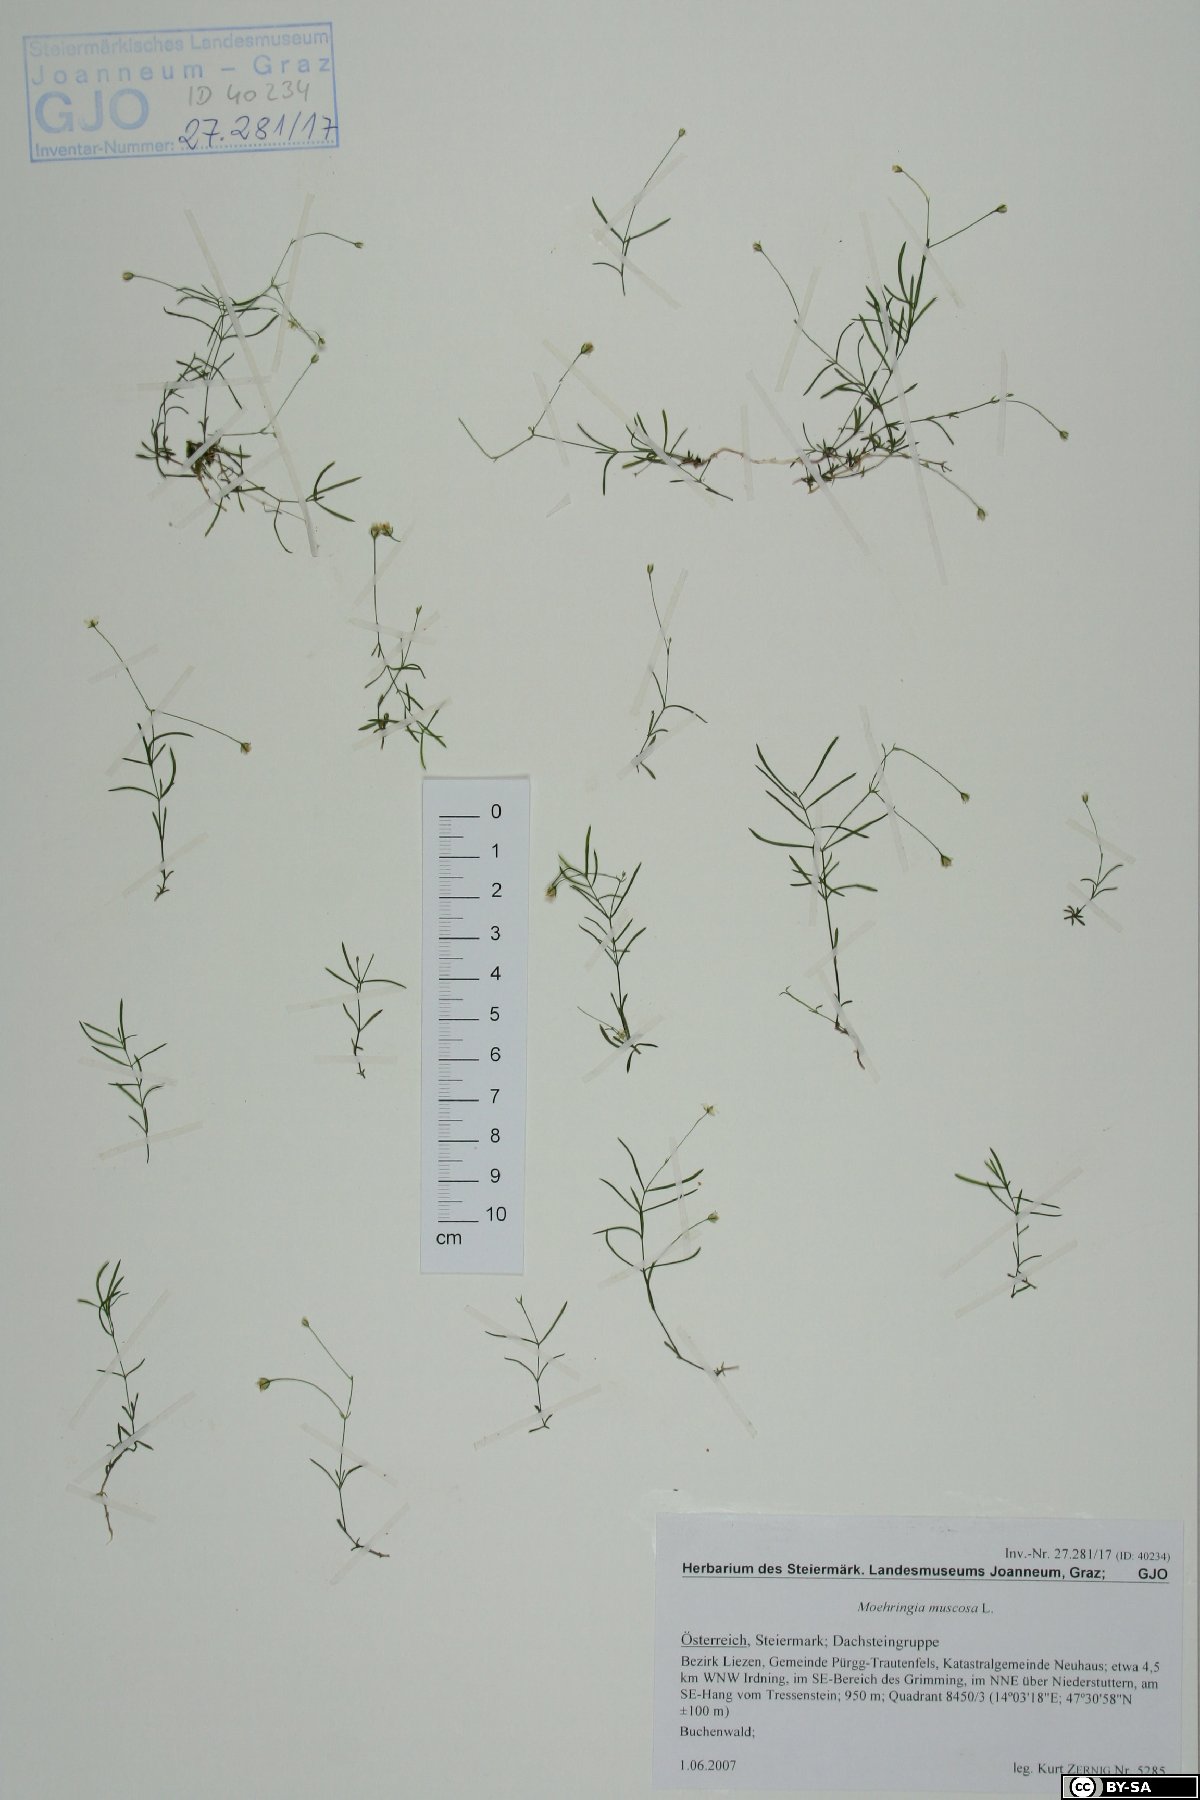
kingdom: Plantae
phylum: Tracheophyta
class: Magnoliopsida
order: Caryophyllales
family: Caryophyllaceae
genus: Moehringia
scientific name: Moehringia muscosa
